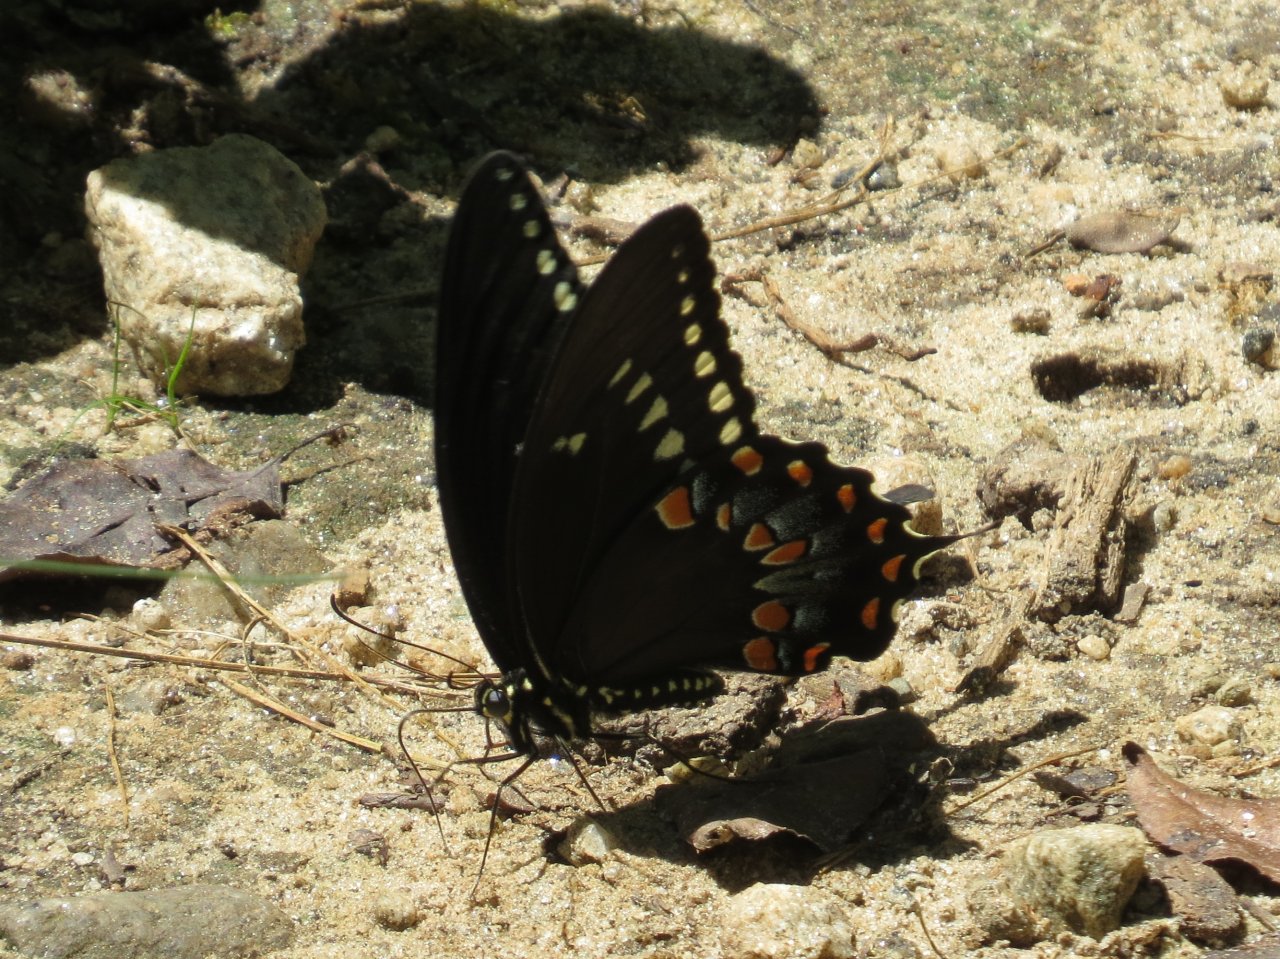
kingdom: Animalia
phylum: Arthropoda
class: Insecta
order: Lepidoptera
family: Papilionidae
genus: Pterourus
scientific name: Pterourus troilus
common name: Spicebush Swallowtail
